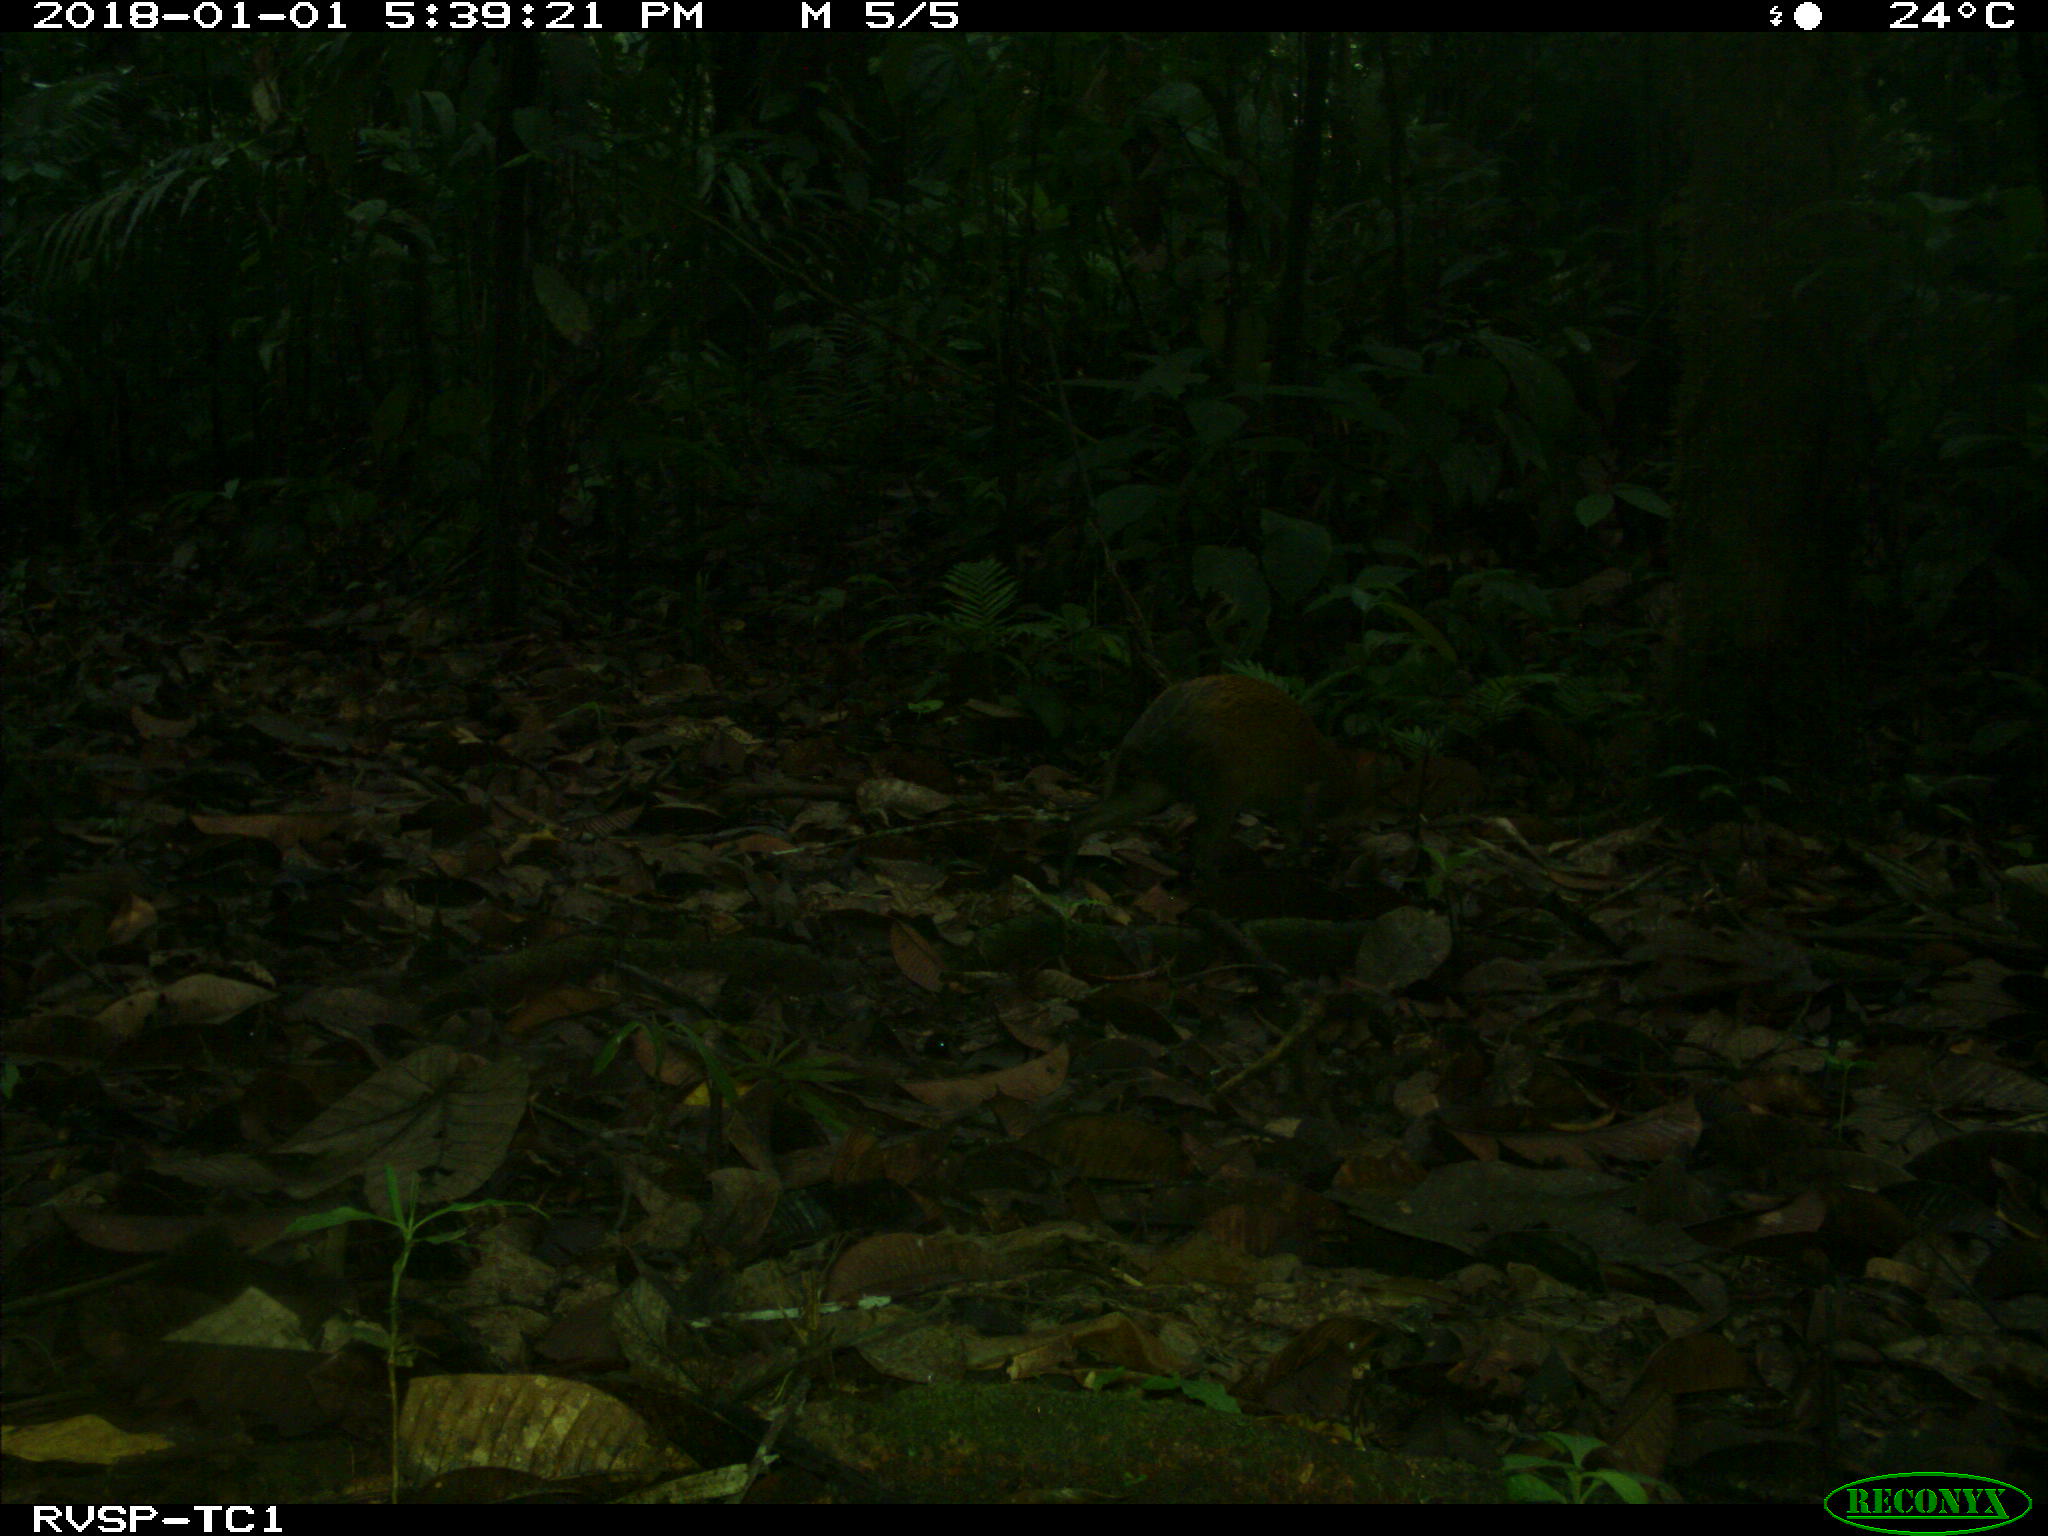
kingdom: Animalia
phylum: Chordata
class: Mammalia
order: Rodentia
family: Dasyproctidae
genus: Dasyprocta
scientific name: Dasyprocta punctata
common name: Central american agouti
